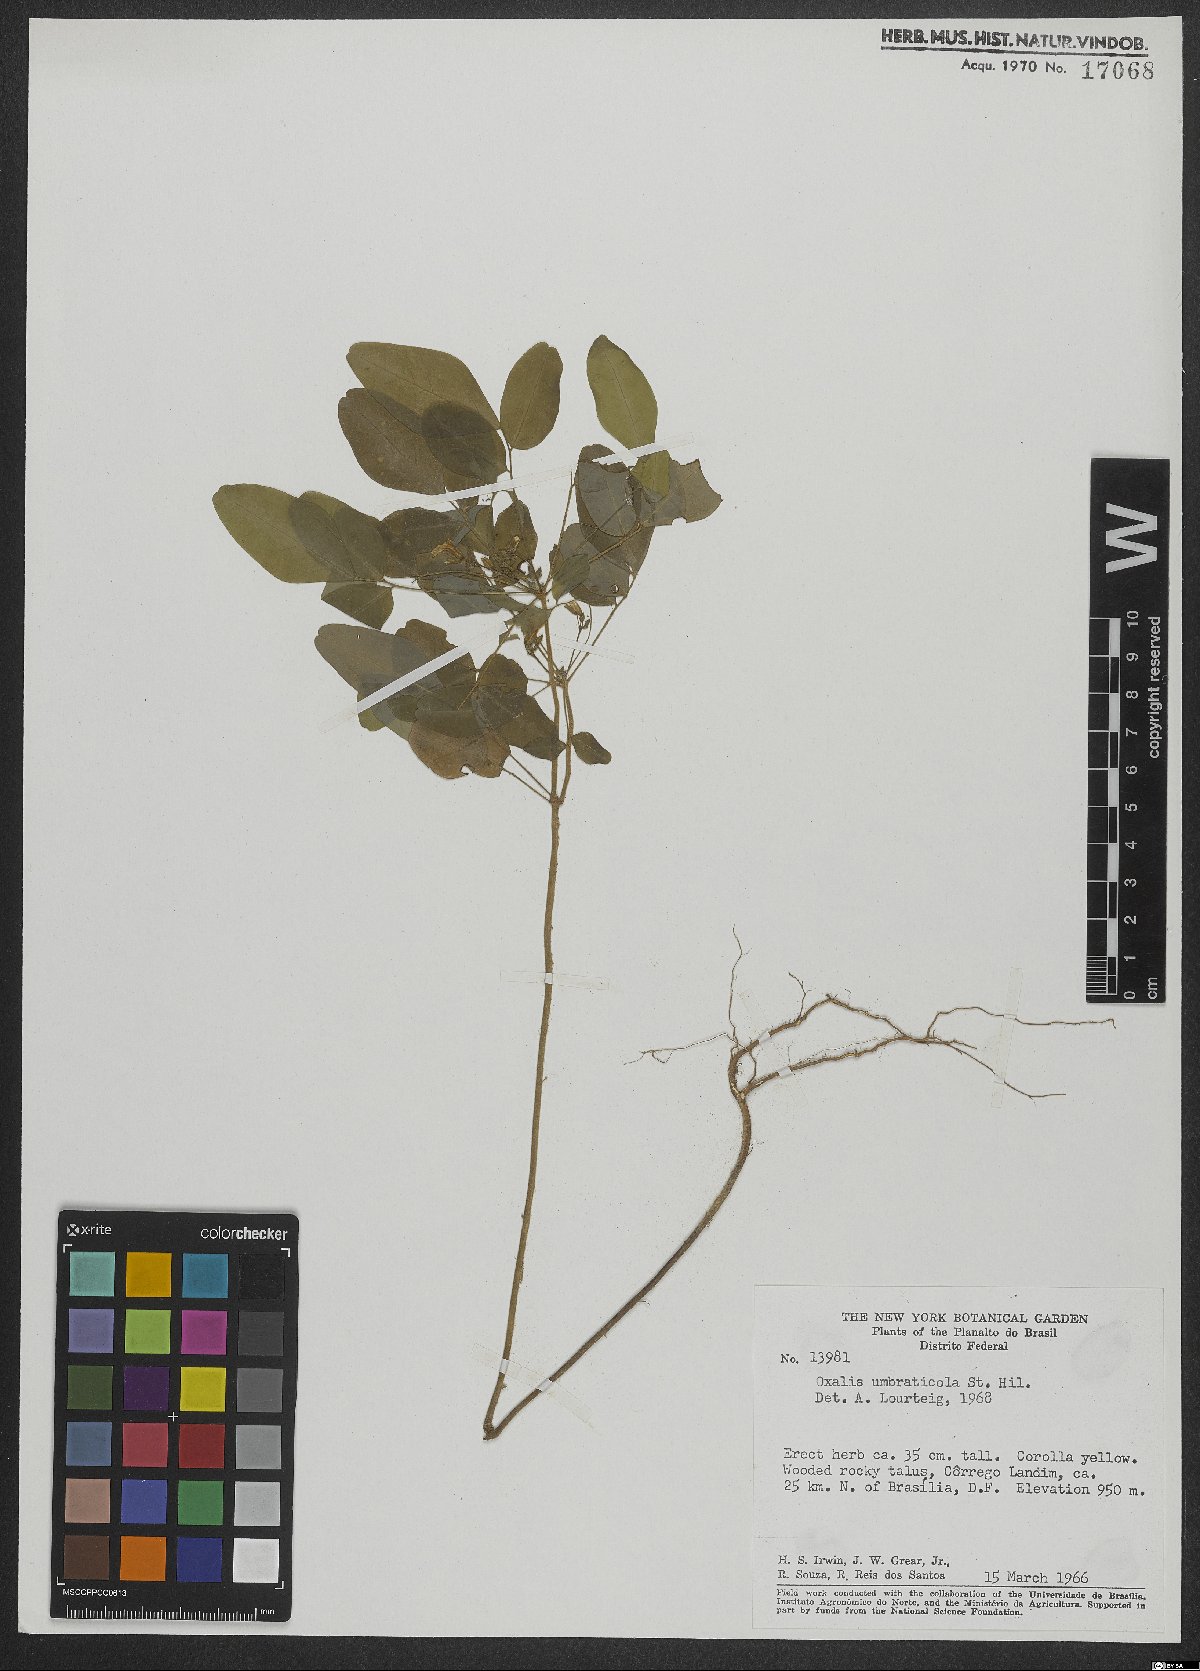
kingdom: Plantae
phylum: Tracheophyta
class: Magnoliopsida
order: Oxalidales
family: Oxalidaceae
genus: Oxalis
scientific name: Oxalis umbraticola
